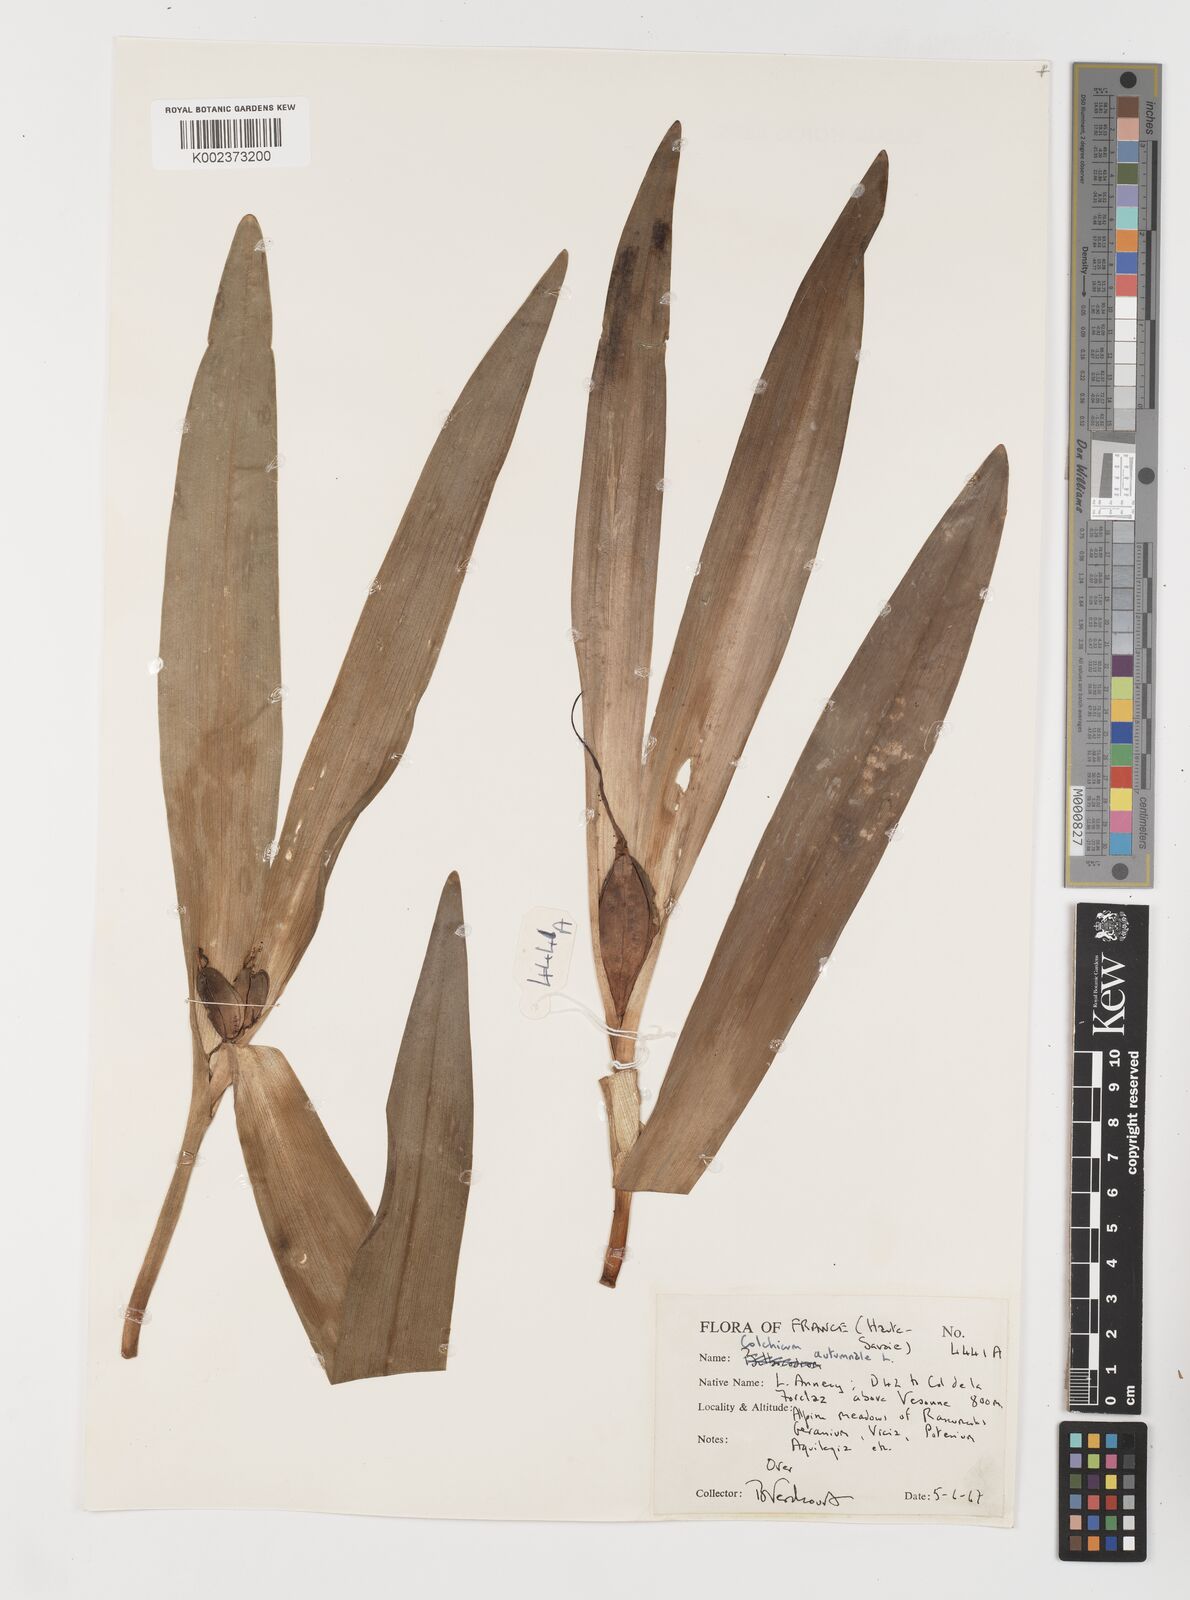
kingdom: Plantae
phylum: Tracheophyta
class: Liliopsida
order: Liliales
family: Colchicaceae
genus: Colchicum
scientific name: Colchicum autumnale
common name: Autumn crocus
